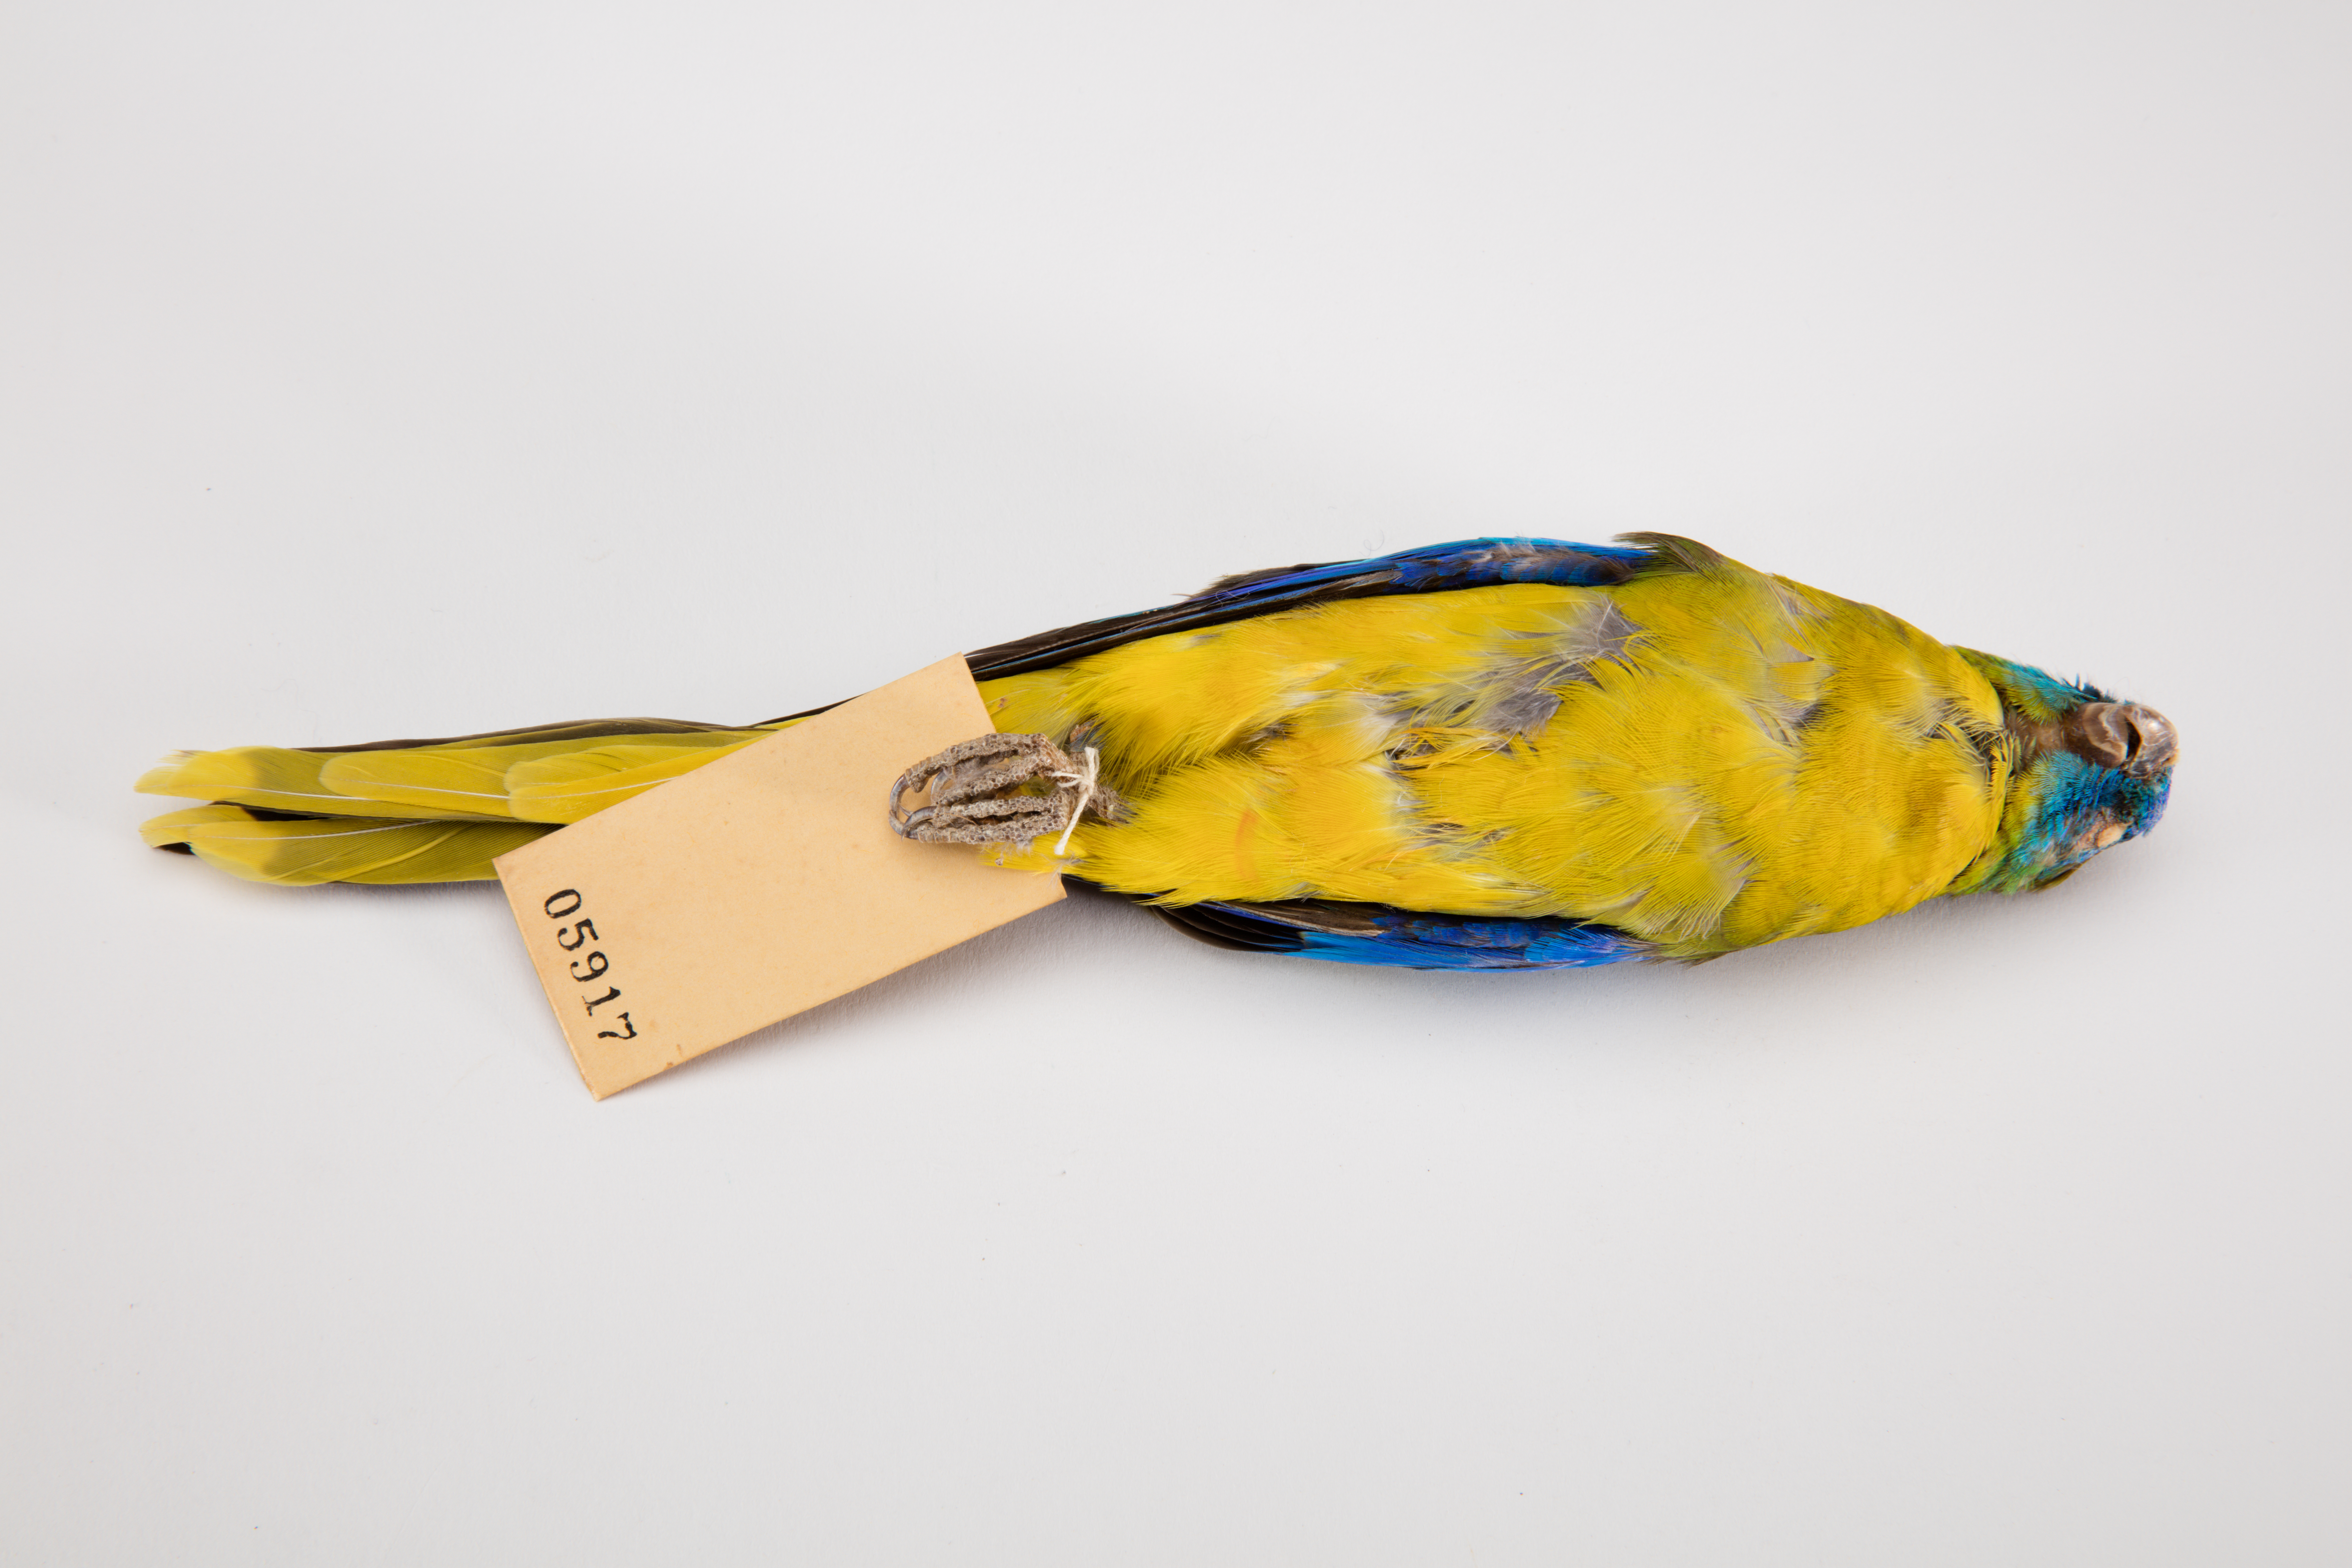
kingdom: Animalia
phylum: Chordata
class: Aves
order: Psittaciformes
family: Psittacidae
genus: Neophema
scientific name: Neophema pulchella
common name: Turquoise parrot
